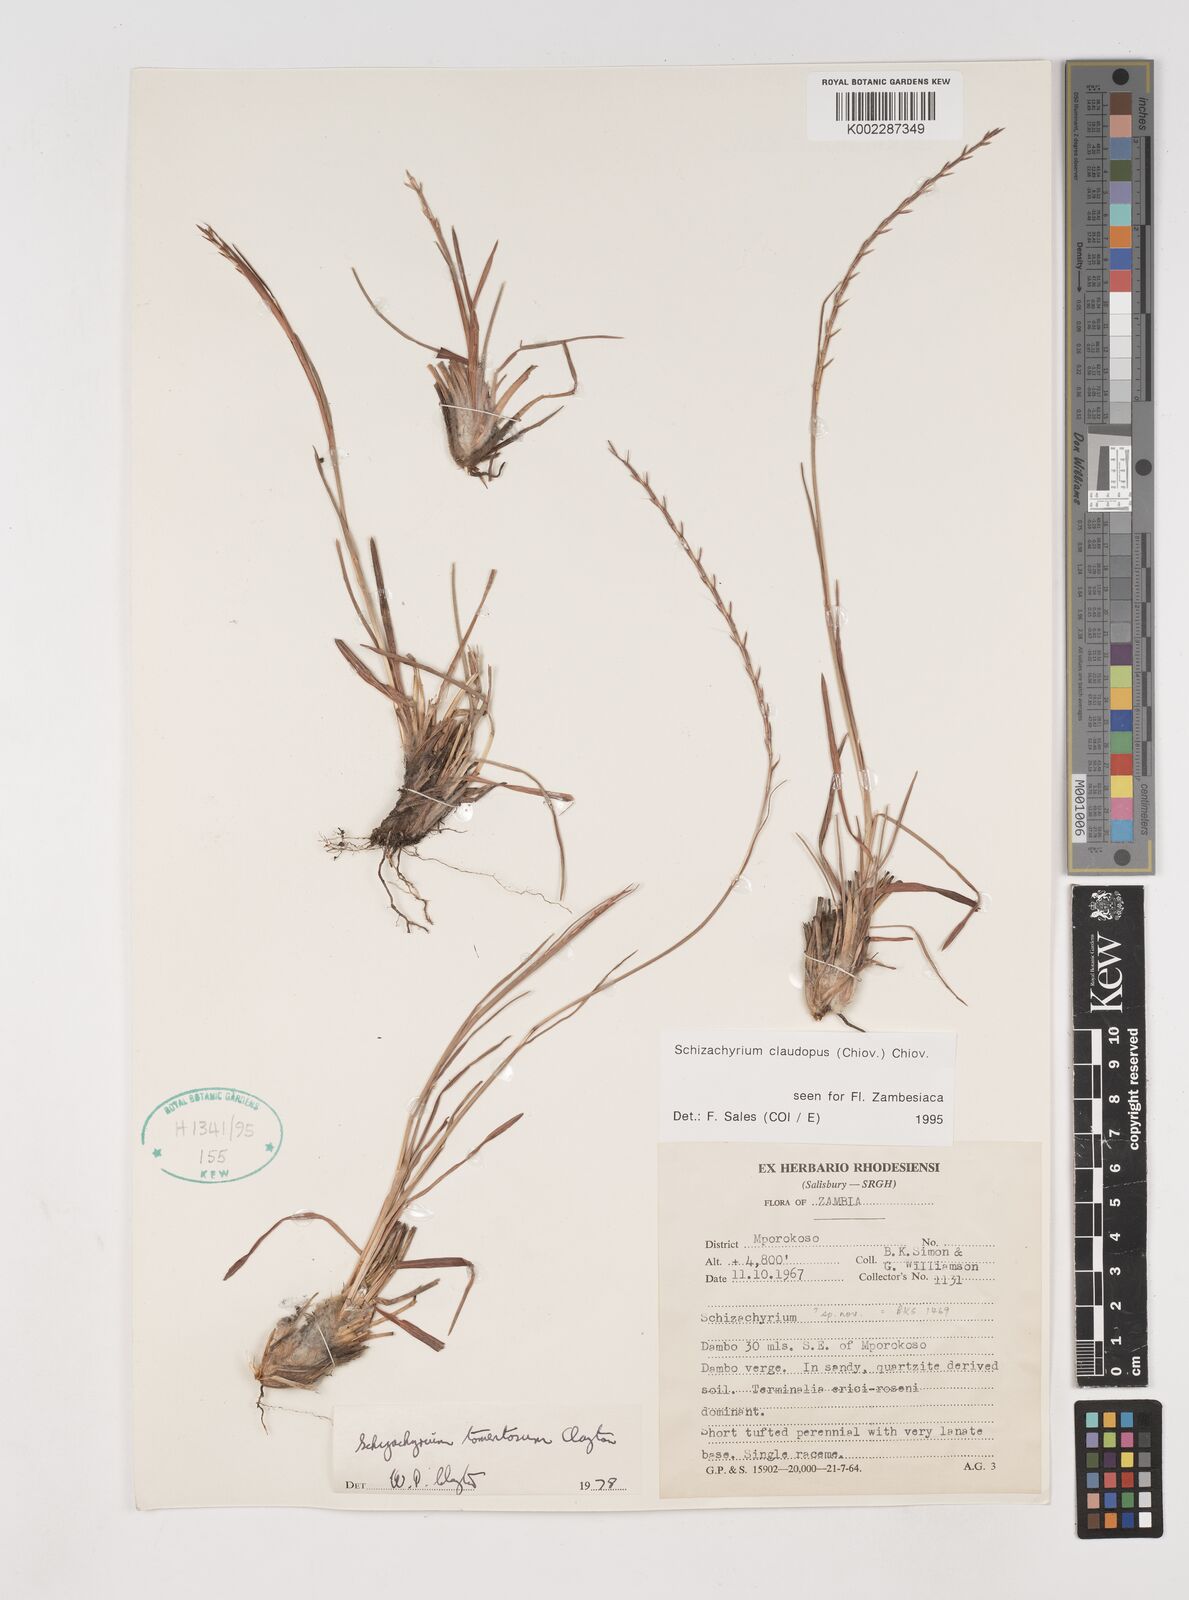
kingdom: Plantae
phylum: Tracheophyta
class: Liliopsida
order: Poales
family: Poaceae
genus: Schizachyrium
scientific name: Schizachyrium claudopus
